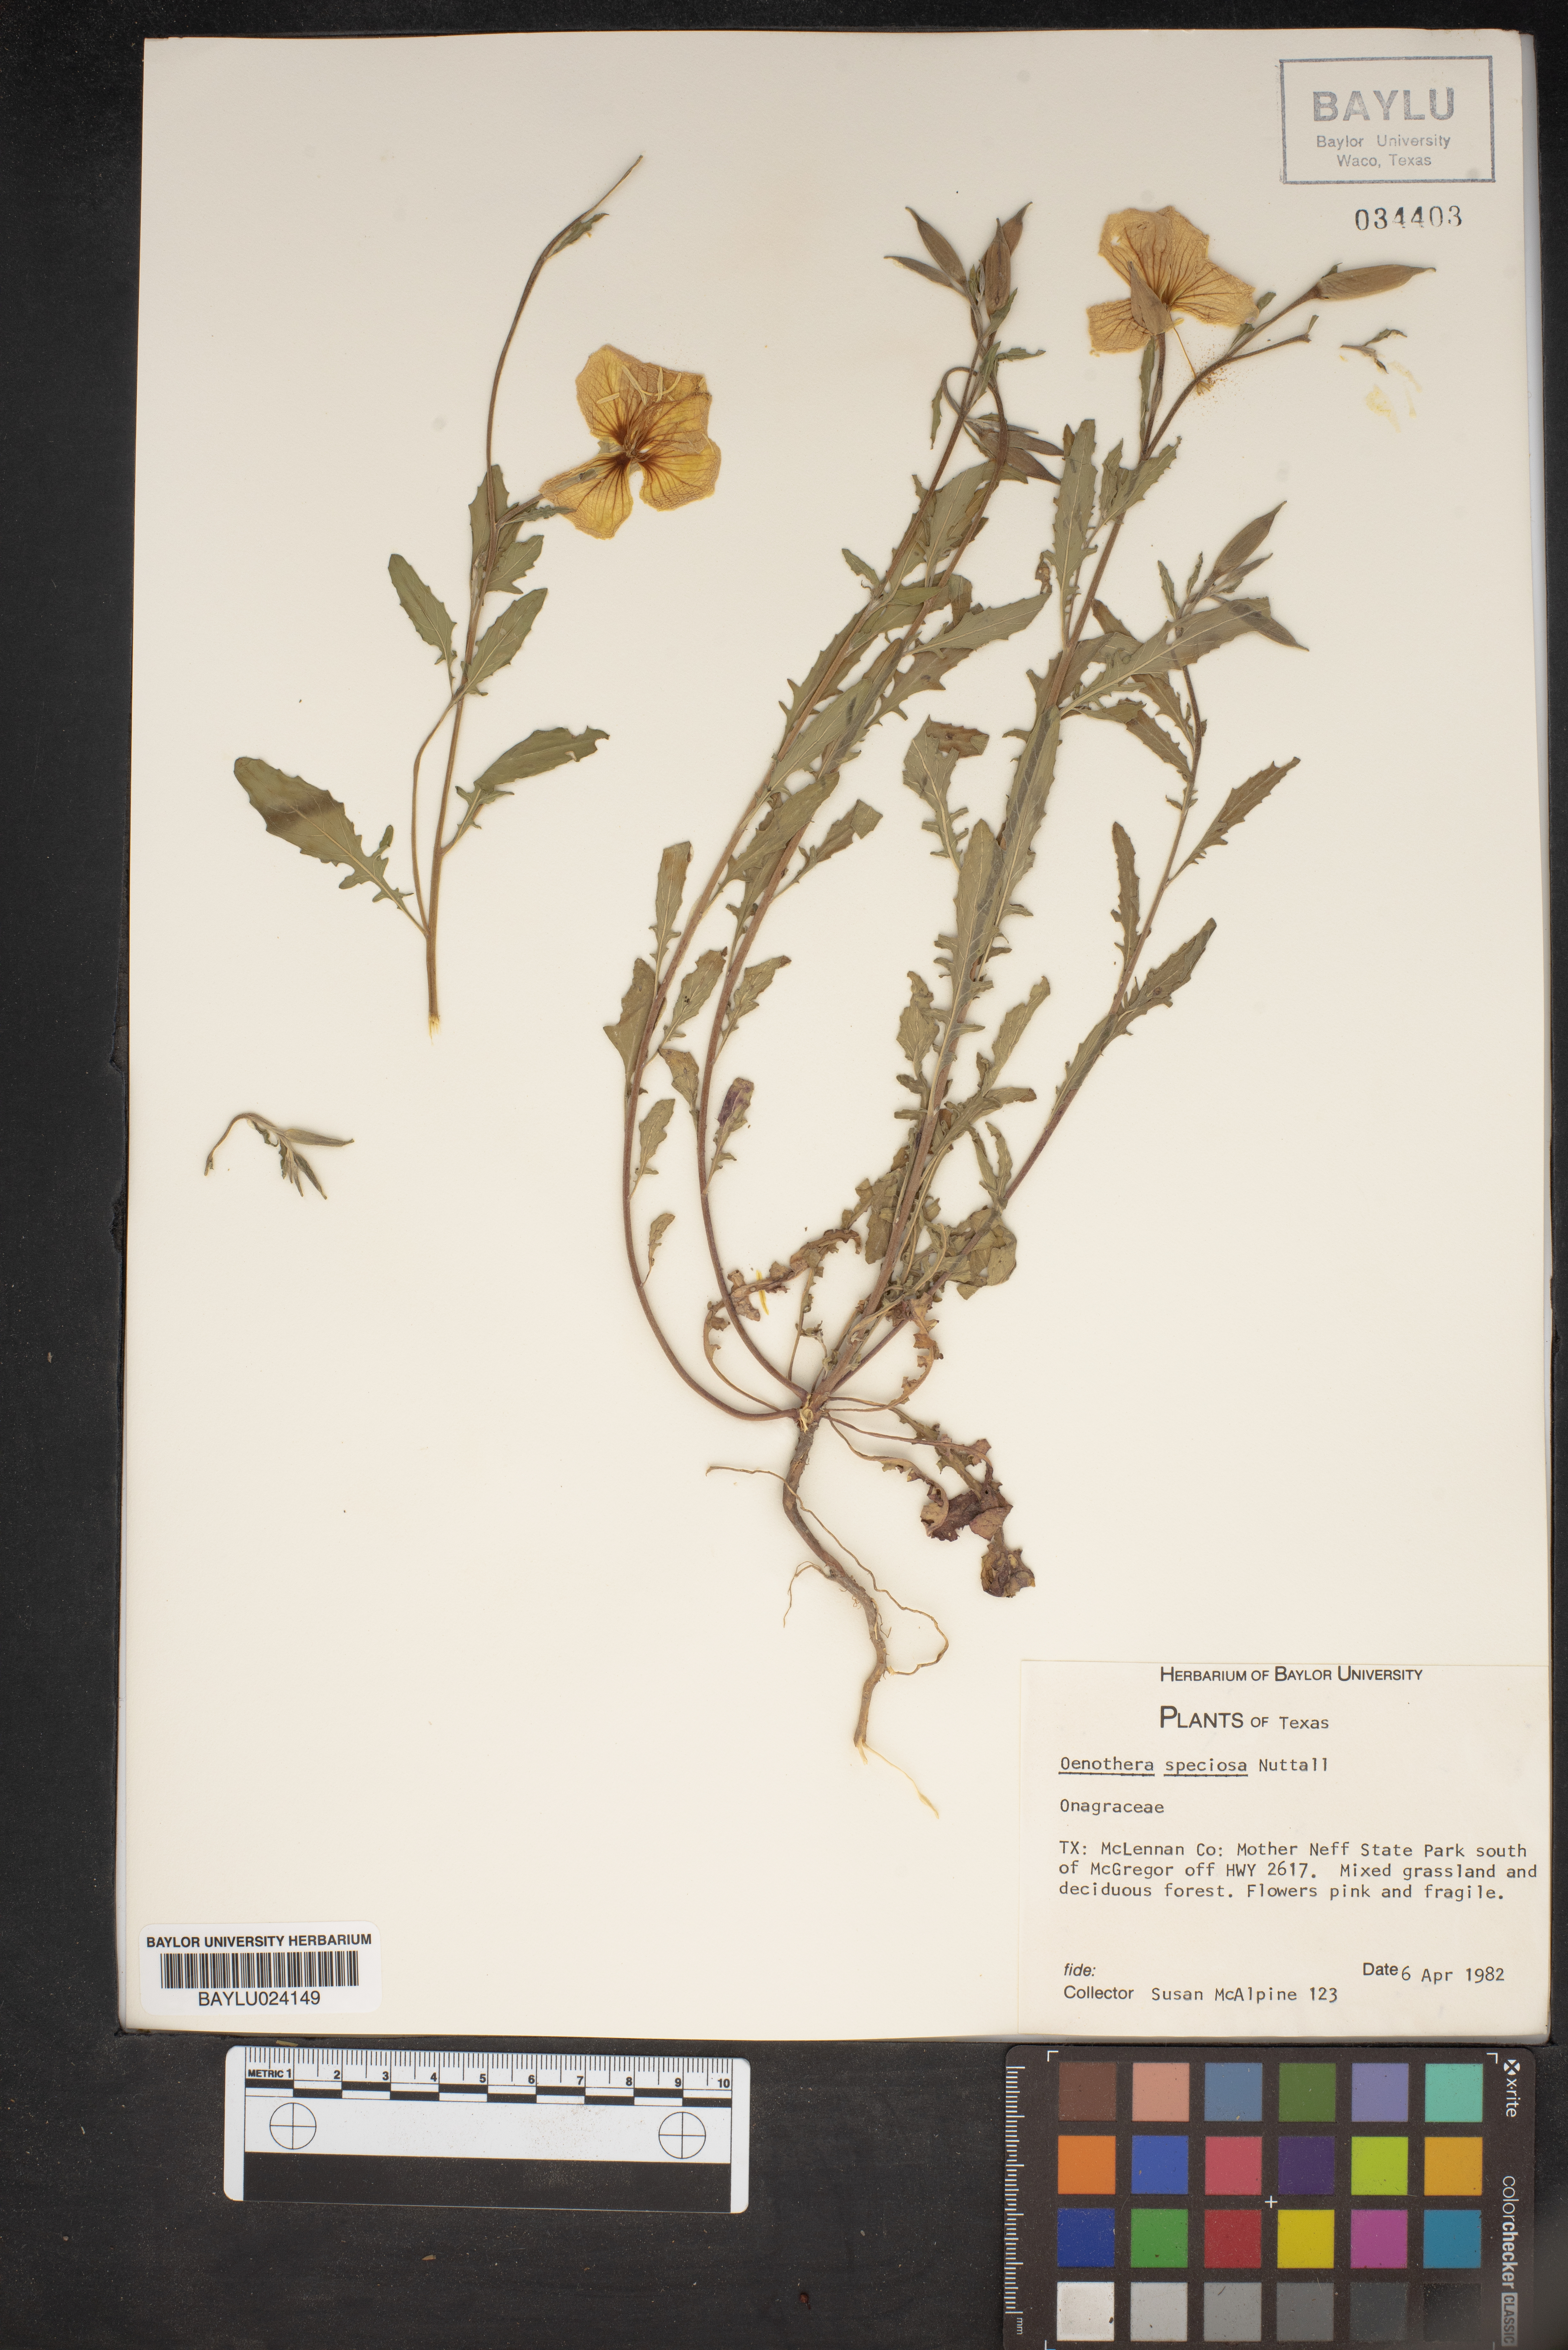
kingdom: Plantae
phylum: Tracheophyta
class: Magnoliopsida
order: Myrtales
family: Onagraceae
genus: Oenothera
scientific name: Oenothera speciosa
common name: White evening-primrose
